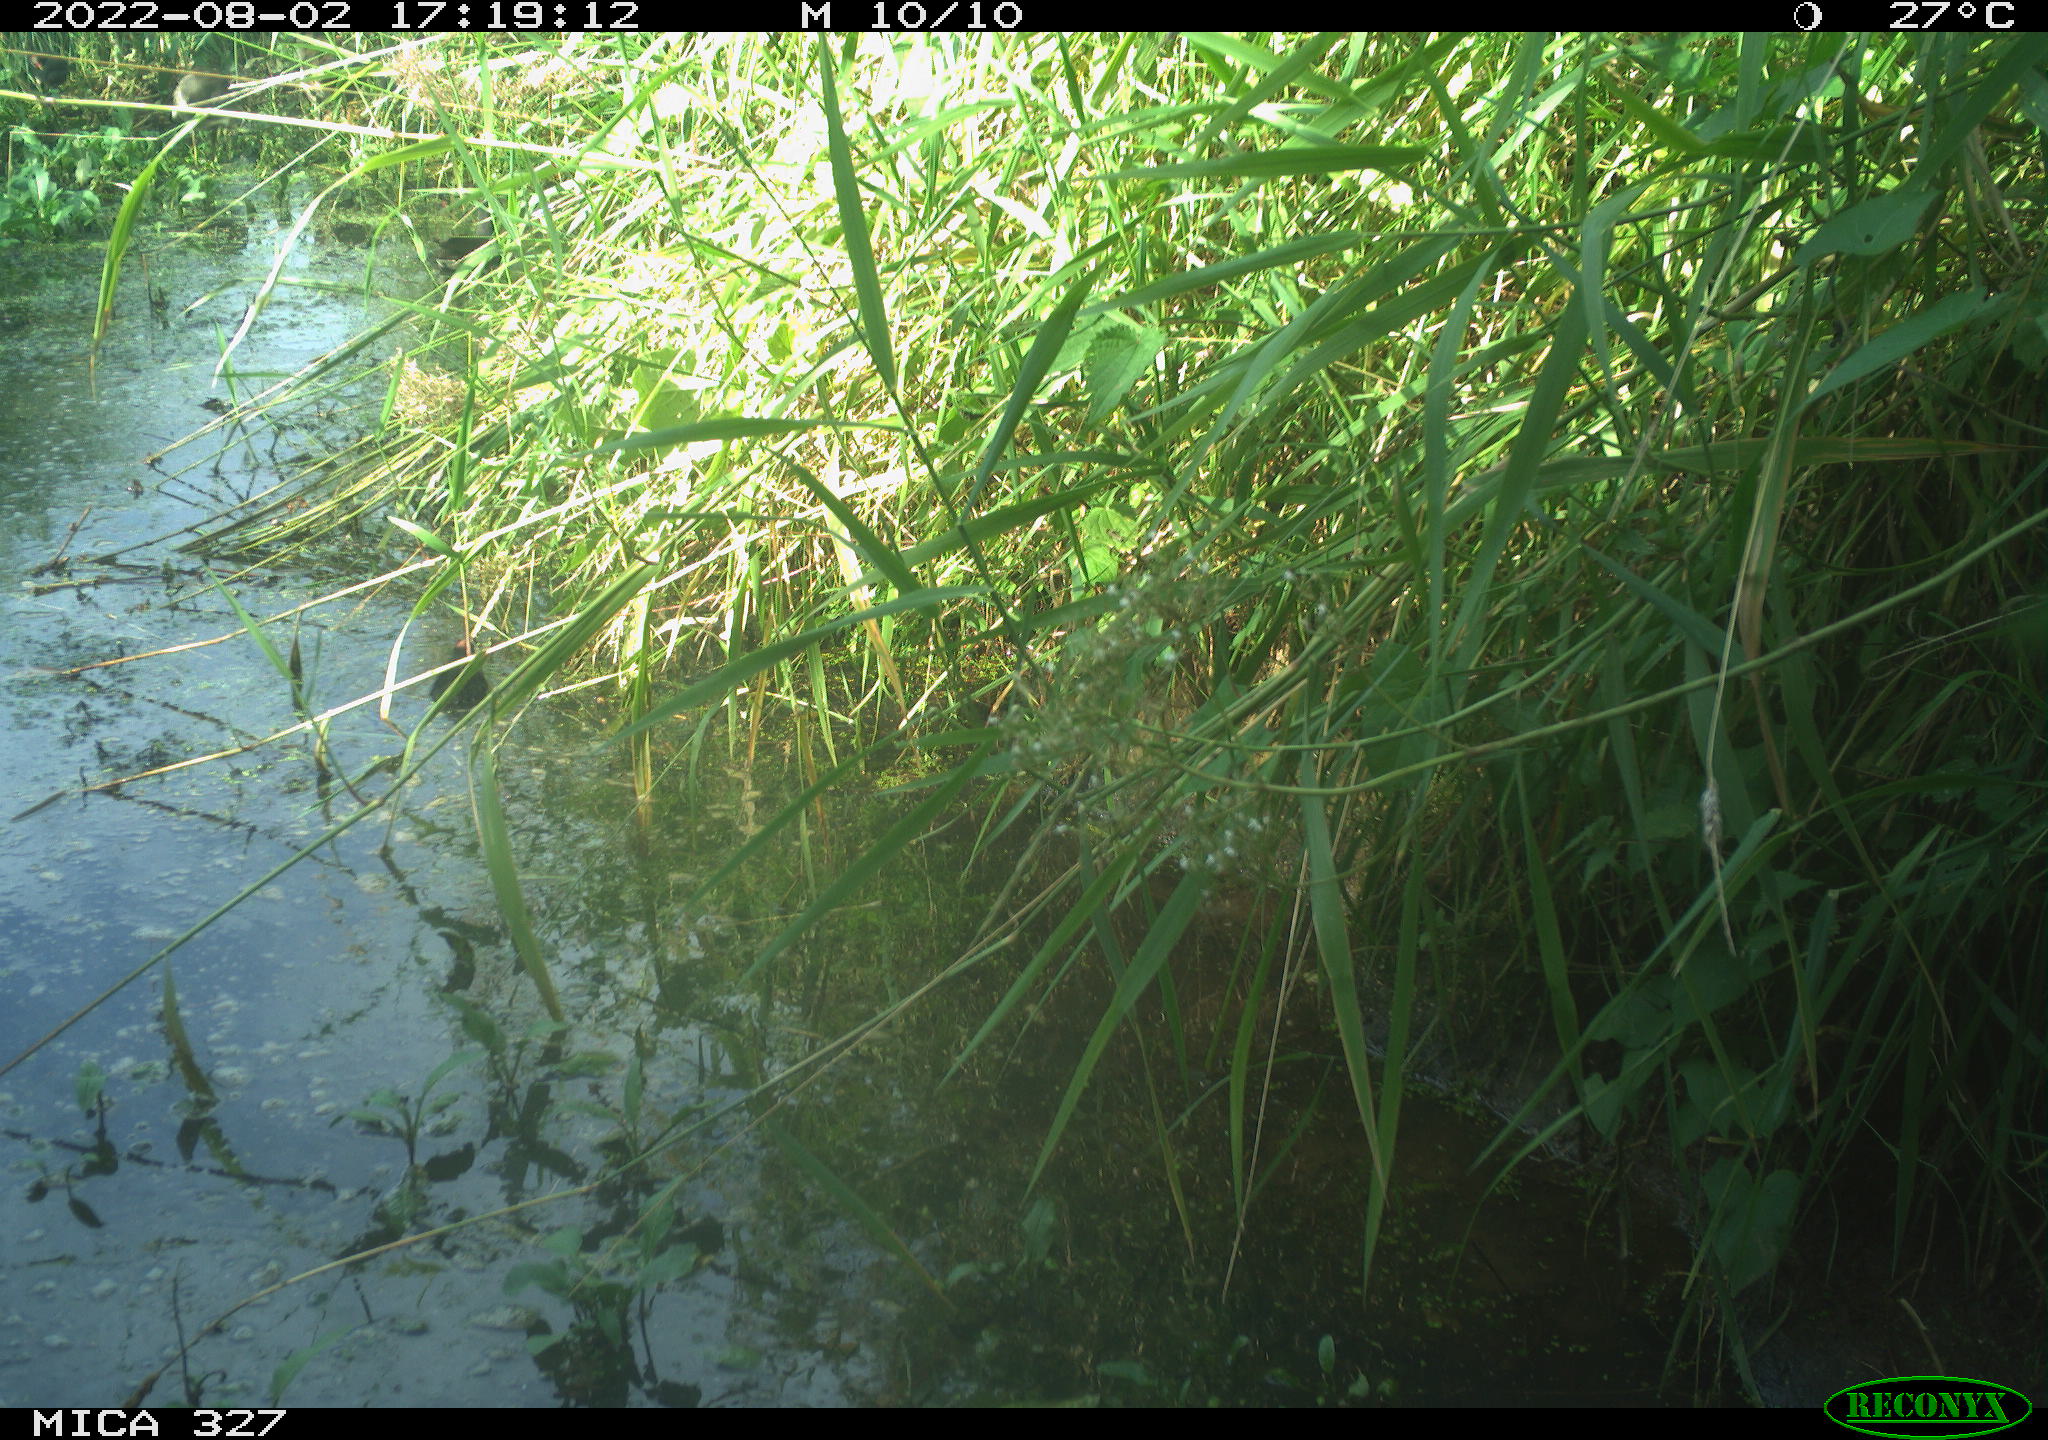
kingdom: Animalia
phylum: Chordata
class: Aves
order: Gruiformes
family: Rallidae
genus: Gallinula
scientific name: Gallinula chloropus
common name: Common moorhen
